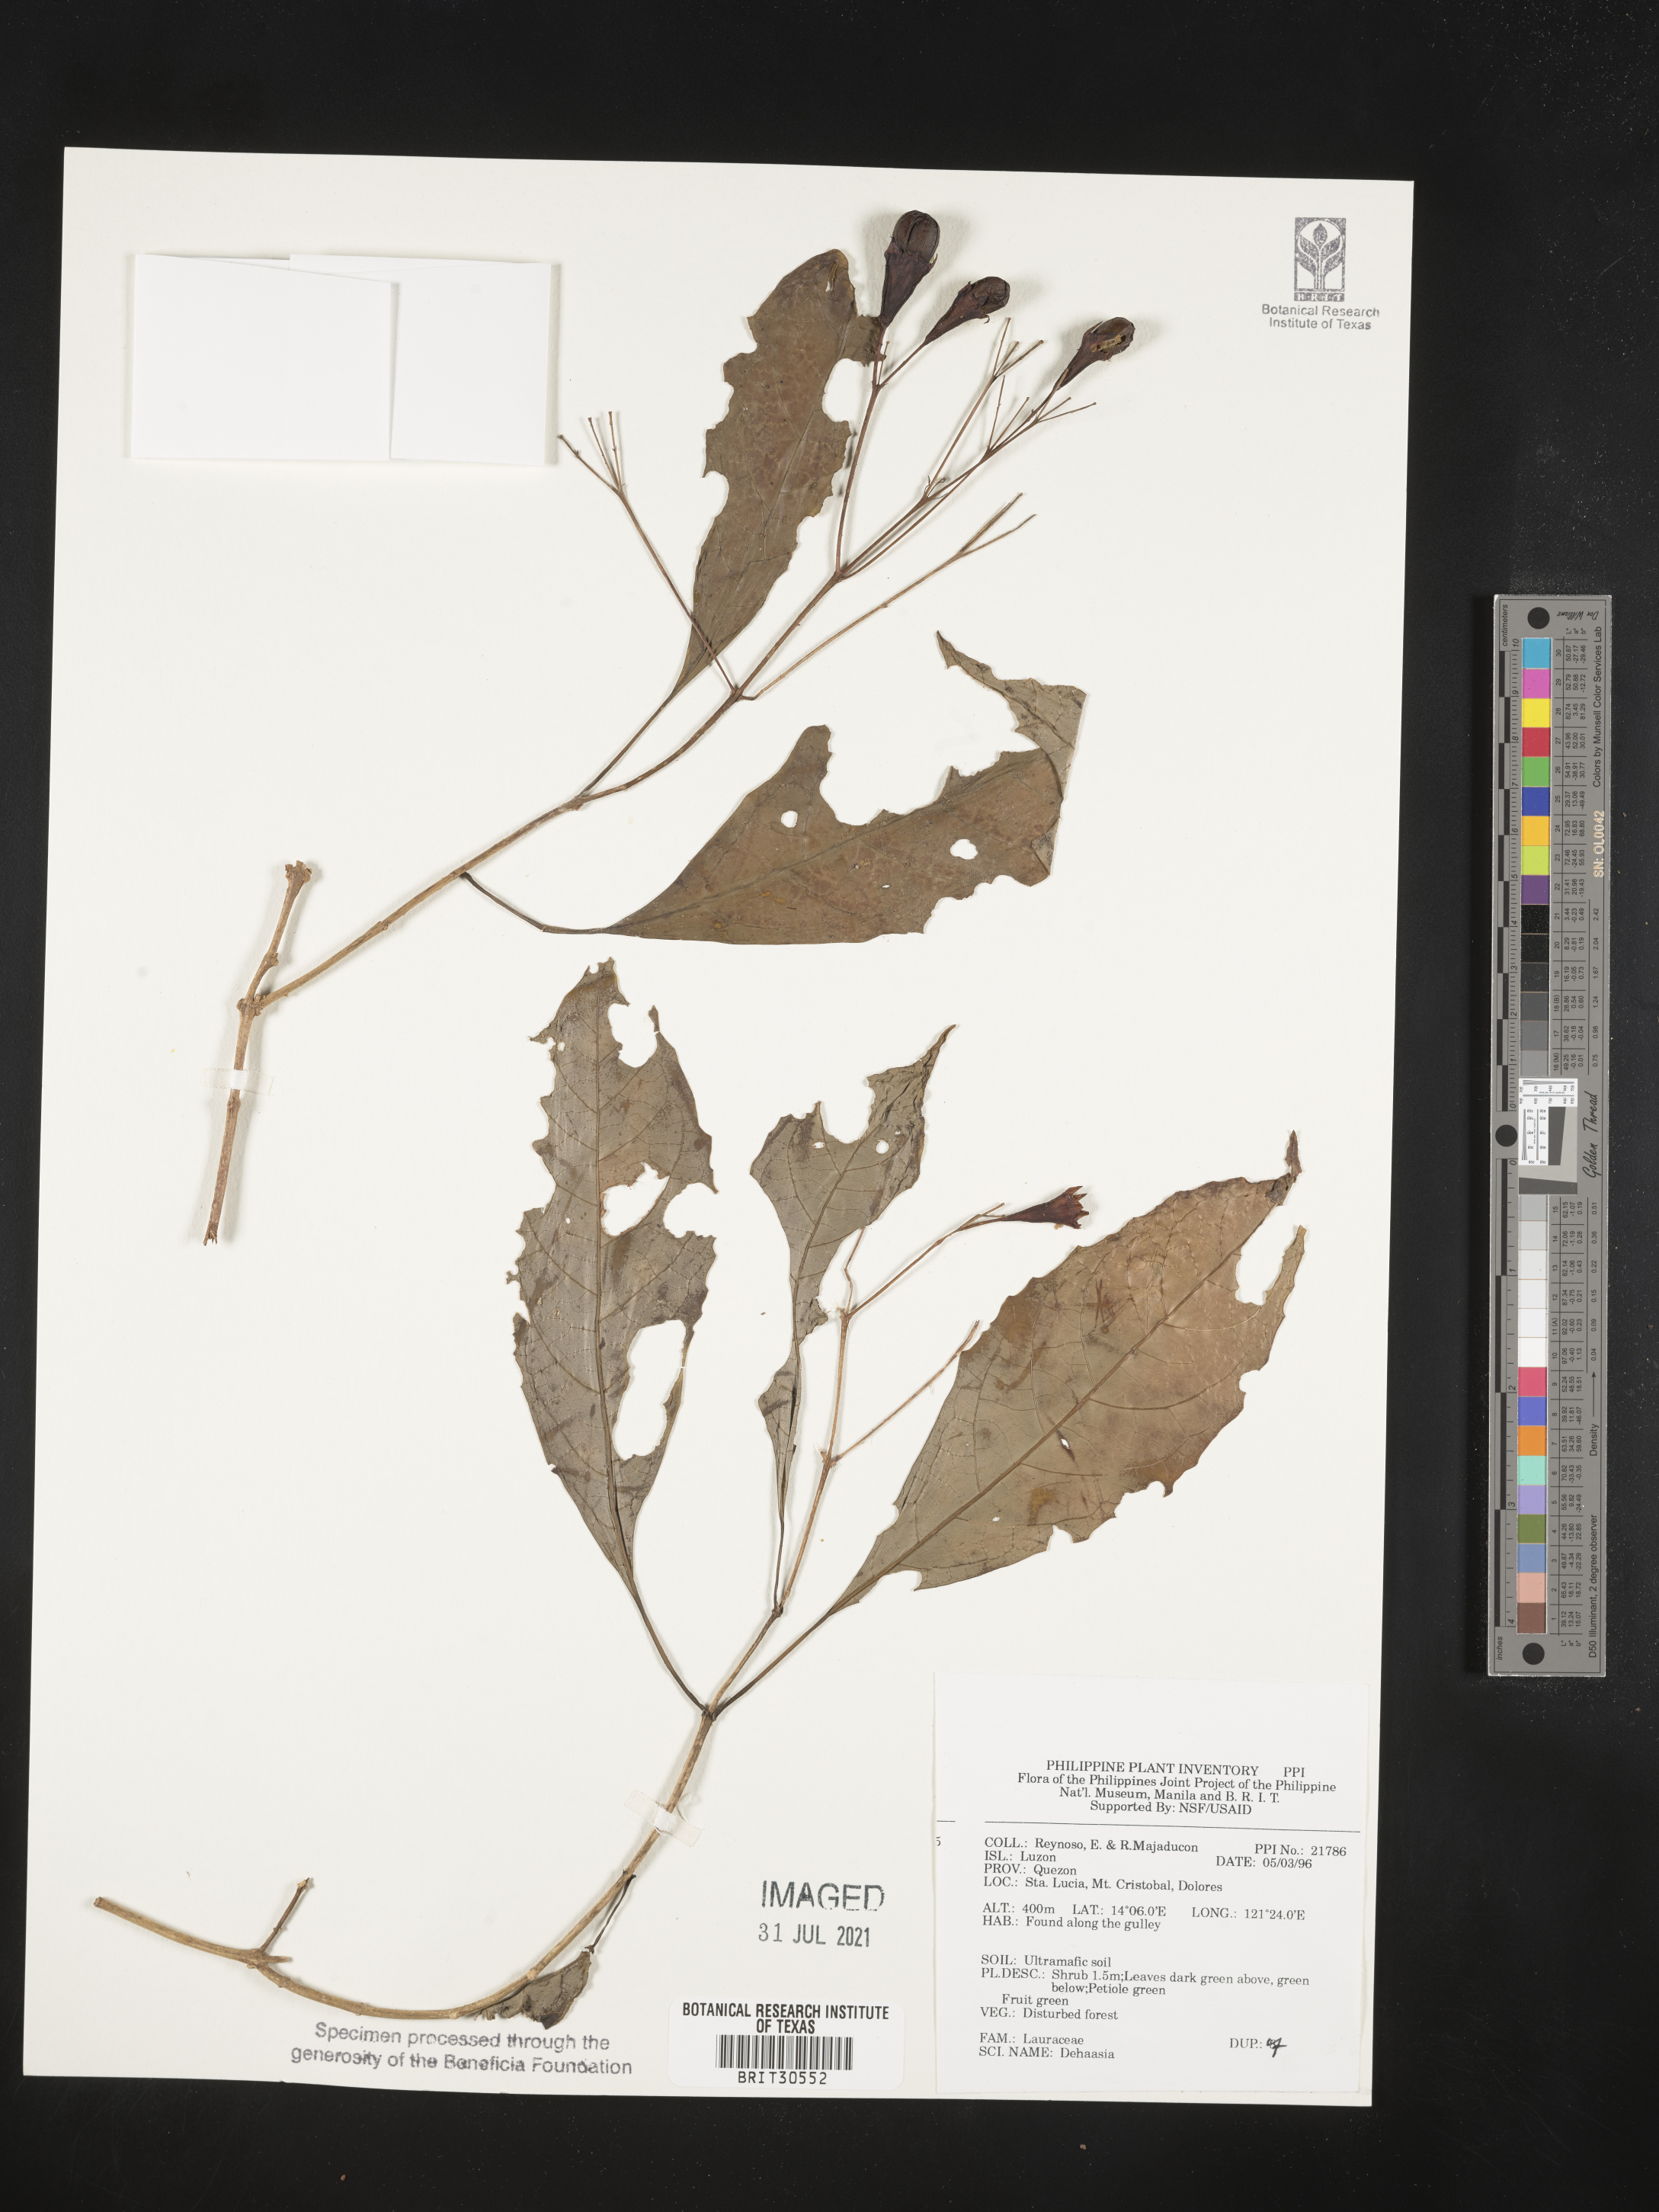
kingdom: Plantae
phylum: Tracheophyta
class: Magnoliopsida
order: Laurales
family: Lauraceae
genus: Dehaasia
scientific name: Dehaasia
